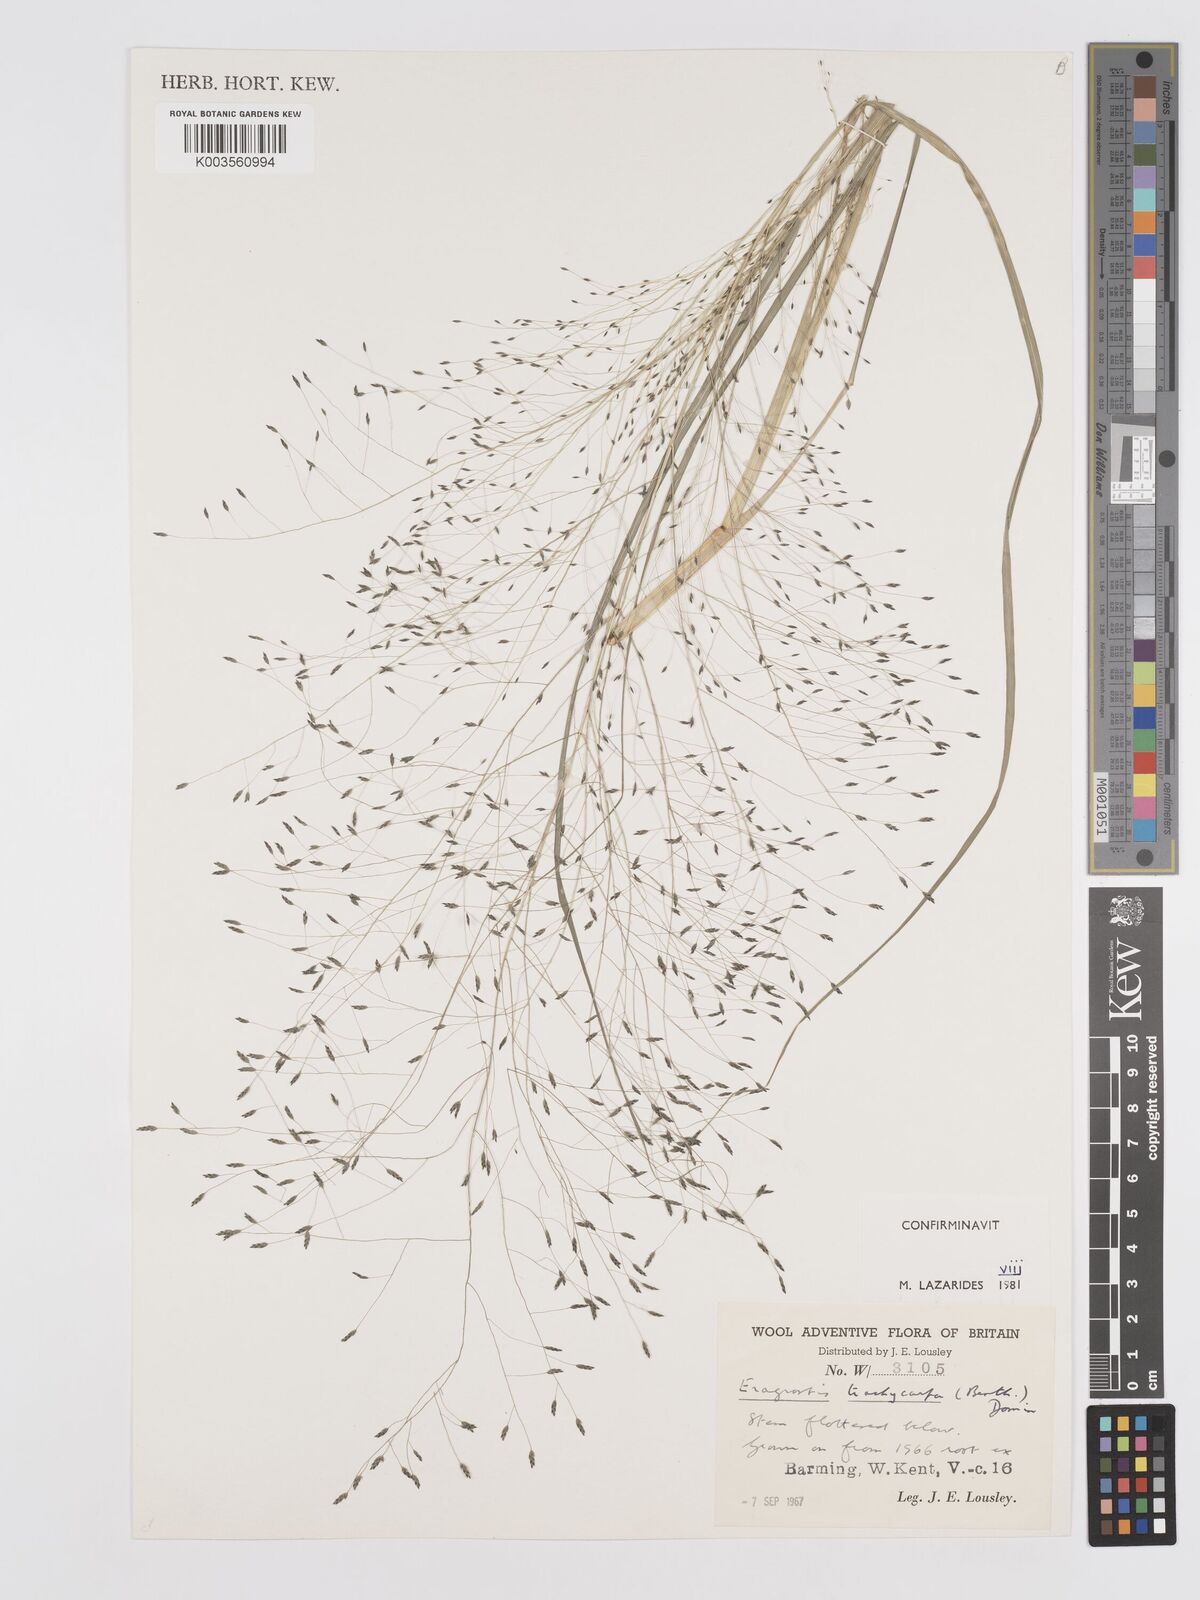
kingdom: Plantae
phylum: Tracheophyta
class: Liliopsida
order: Poales
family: Poaceae
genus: Eragrostis
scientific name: Eragrostis trachycarpa
